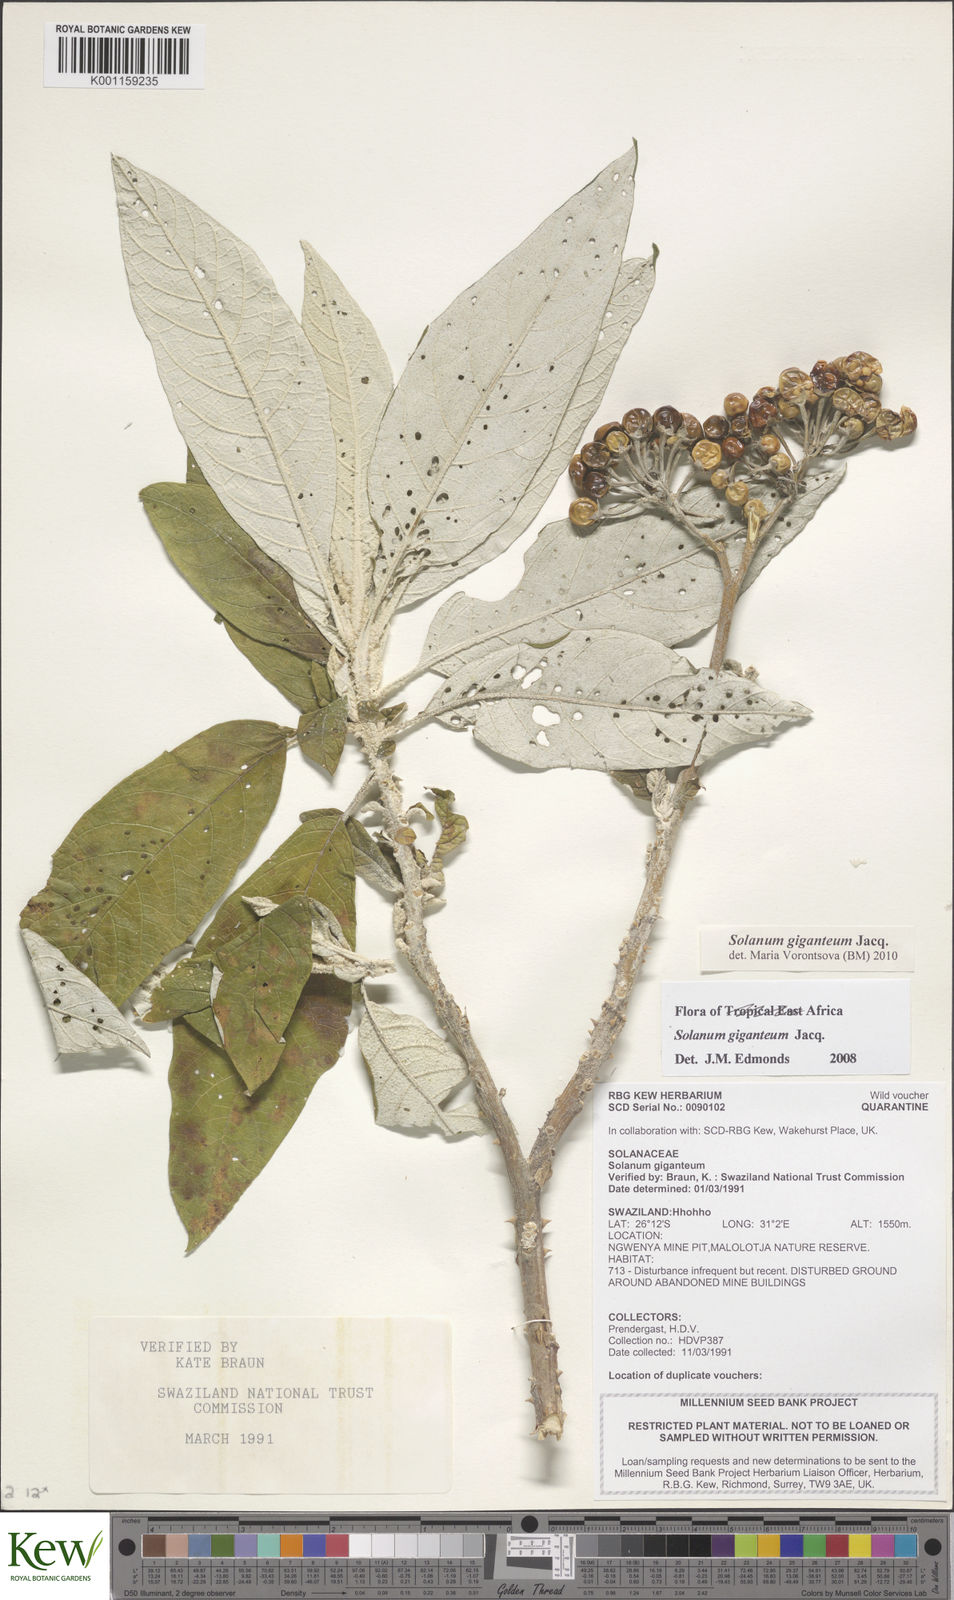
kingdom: Plantae
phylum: Tracheophyta
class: Magnoliopsida
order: Solanales
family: Solanaceae
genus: Solanum
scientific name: Solanum giganteum
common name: Healing-leaf-tree
